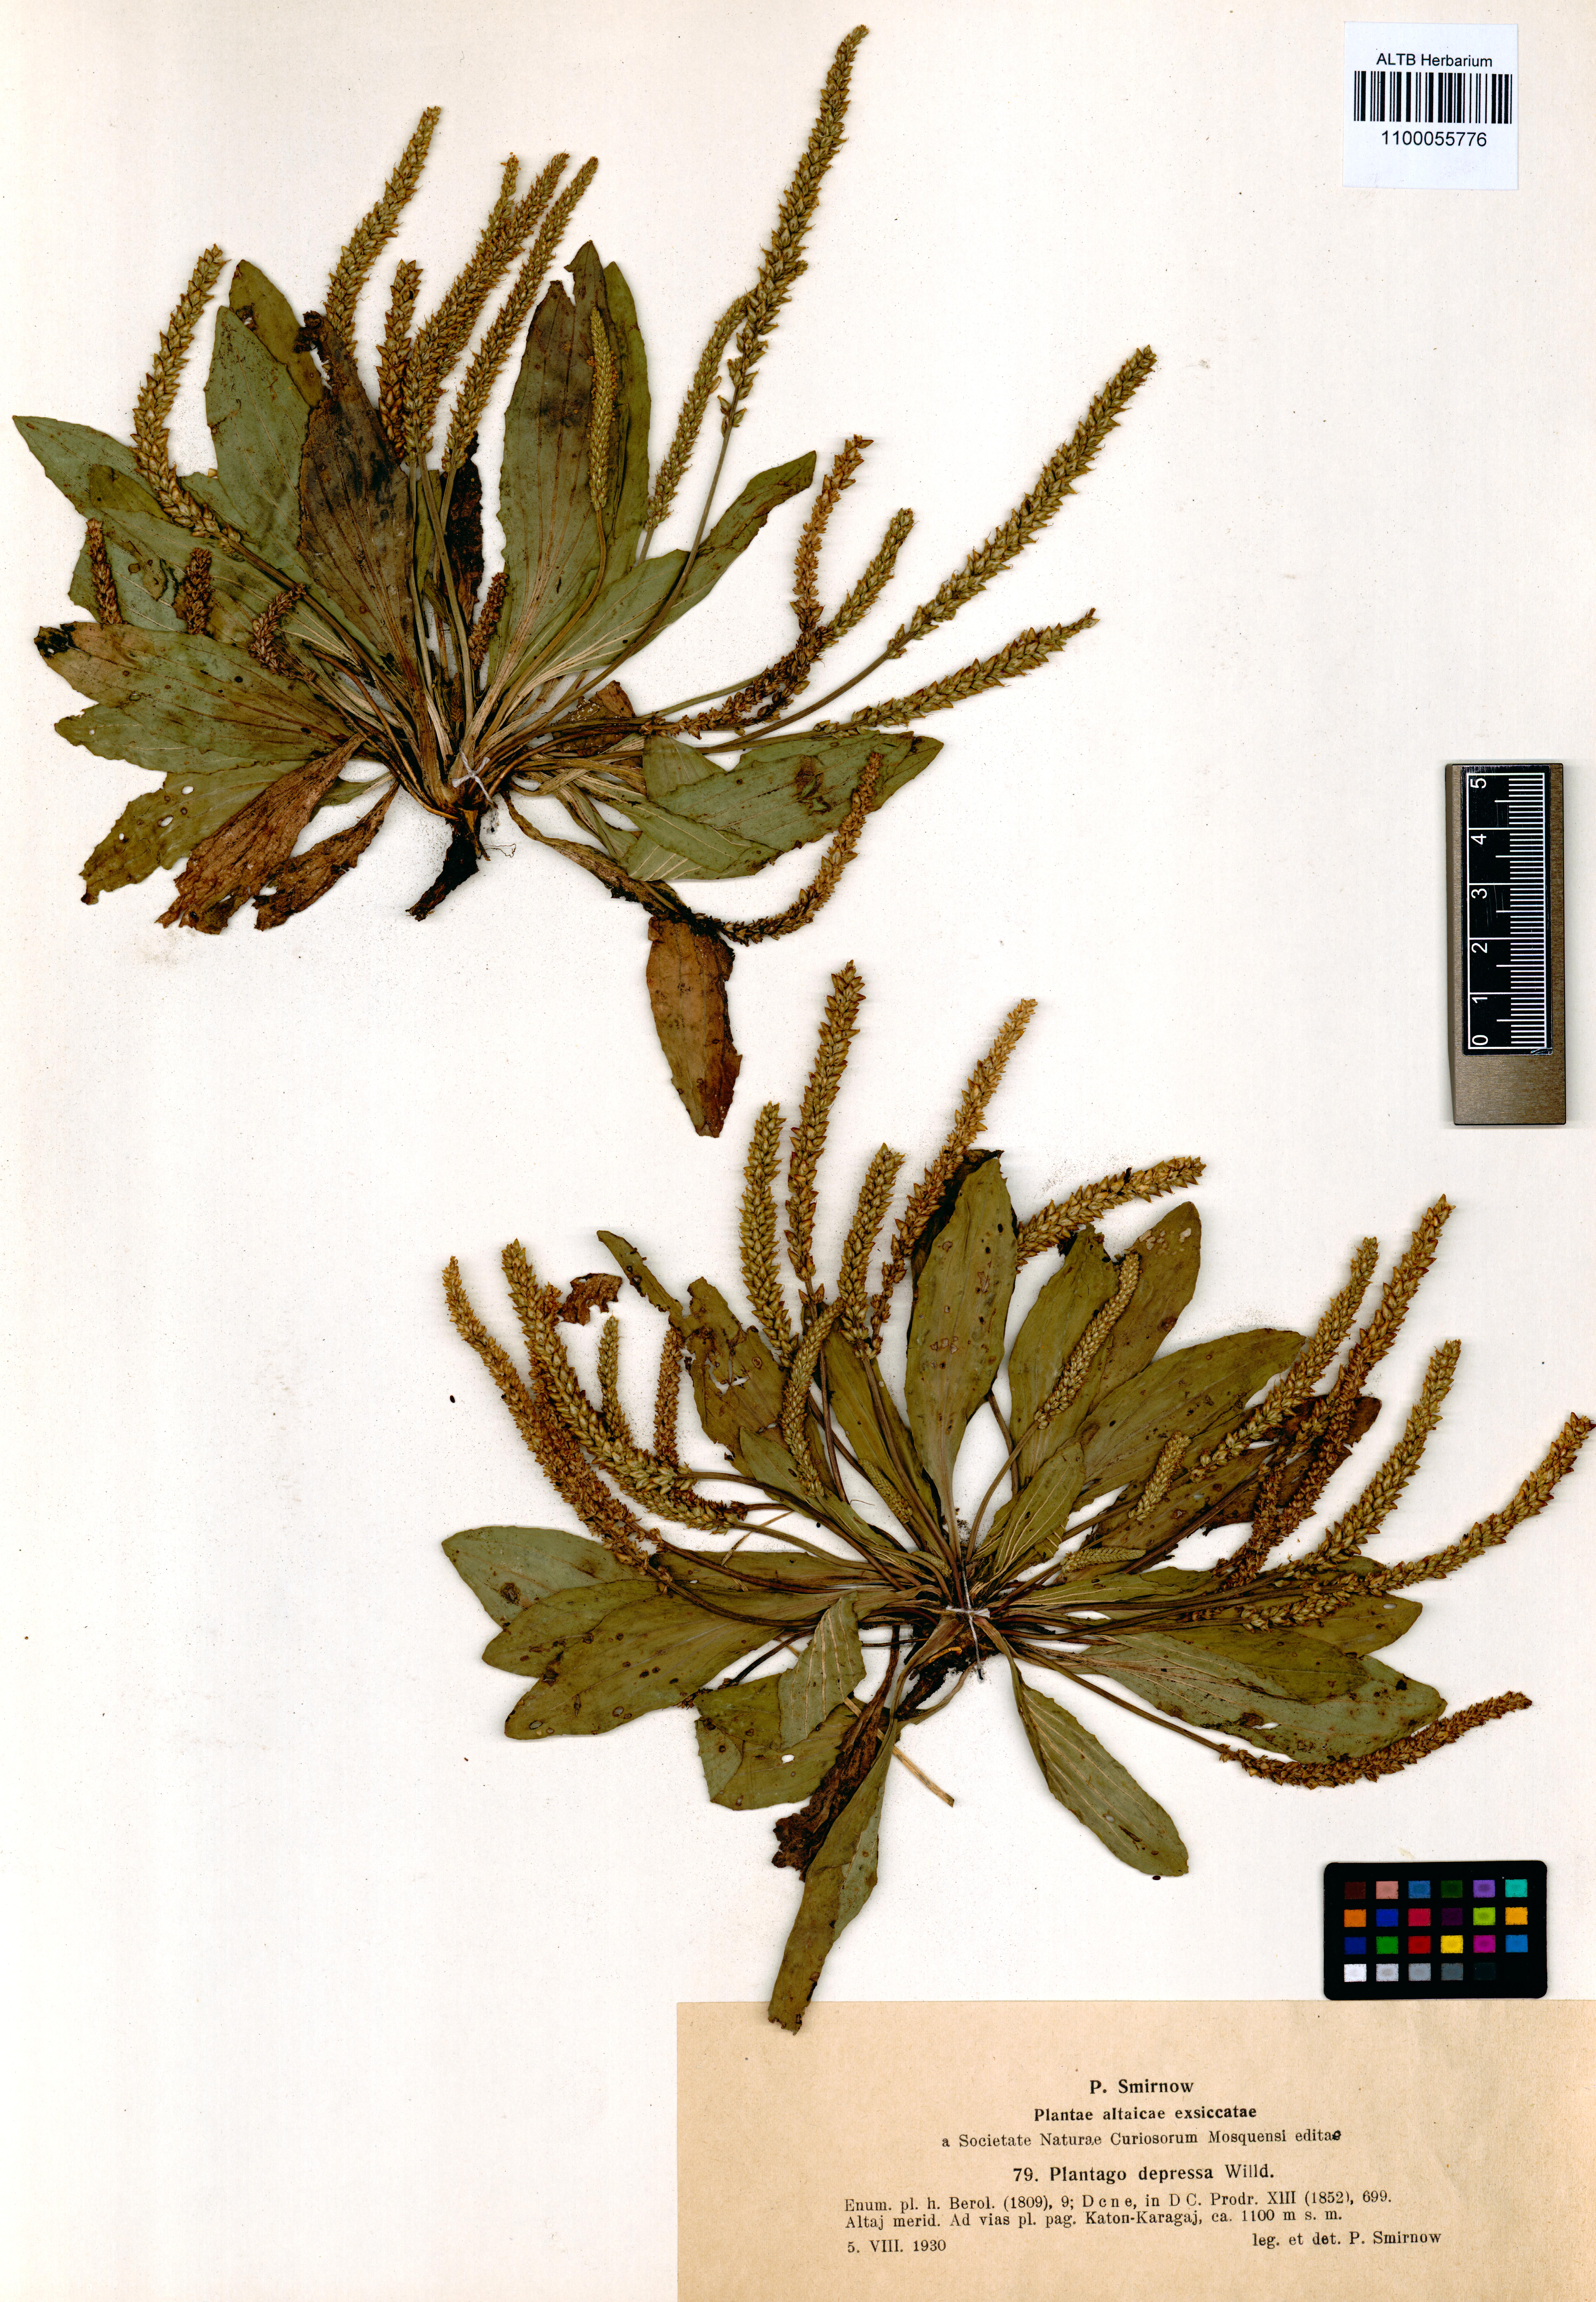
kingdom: Plantae
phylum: Tracheophyta
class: Magnoliopsida
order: Lamiales
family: Plantaginaceae
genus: Plantago
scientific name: Plantago depressa
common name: Depressed plantain
